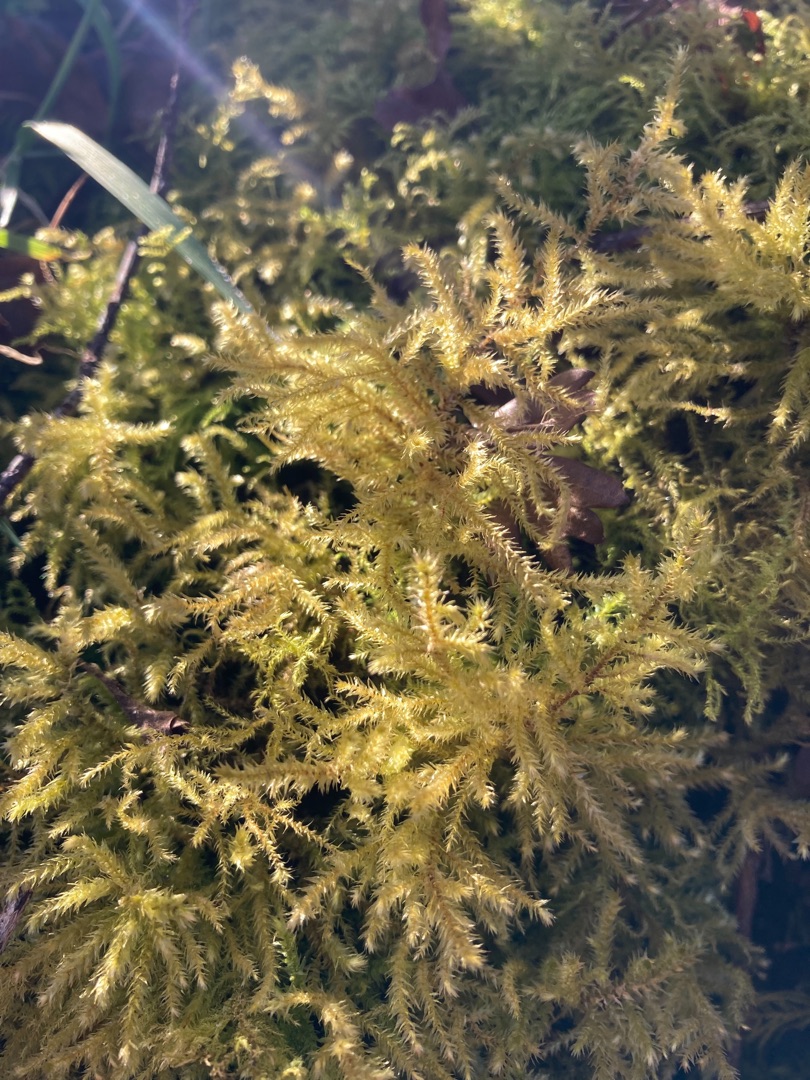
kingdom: Plantae
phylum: Bryophyta
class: Bryopsida
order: Hypnales
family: Brachytheciaceae
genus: Eurhynchium
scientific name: Eurhynchium striatum
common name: Stribet næbmos
